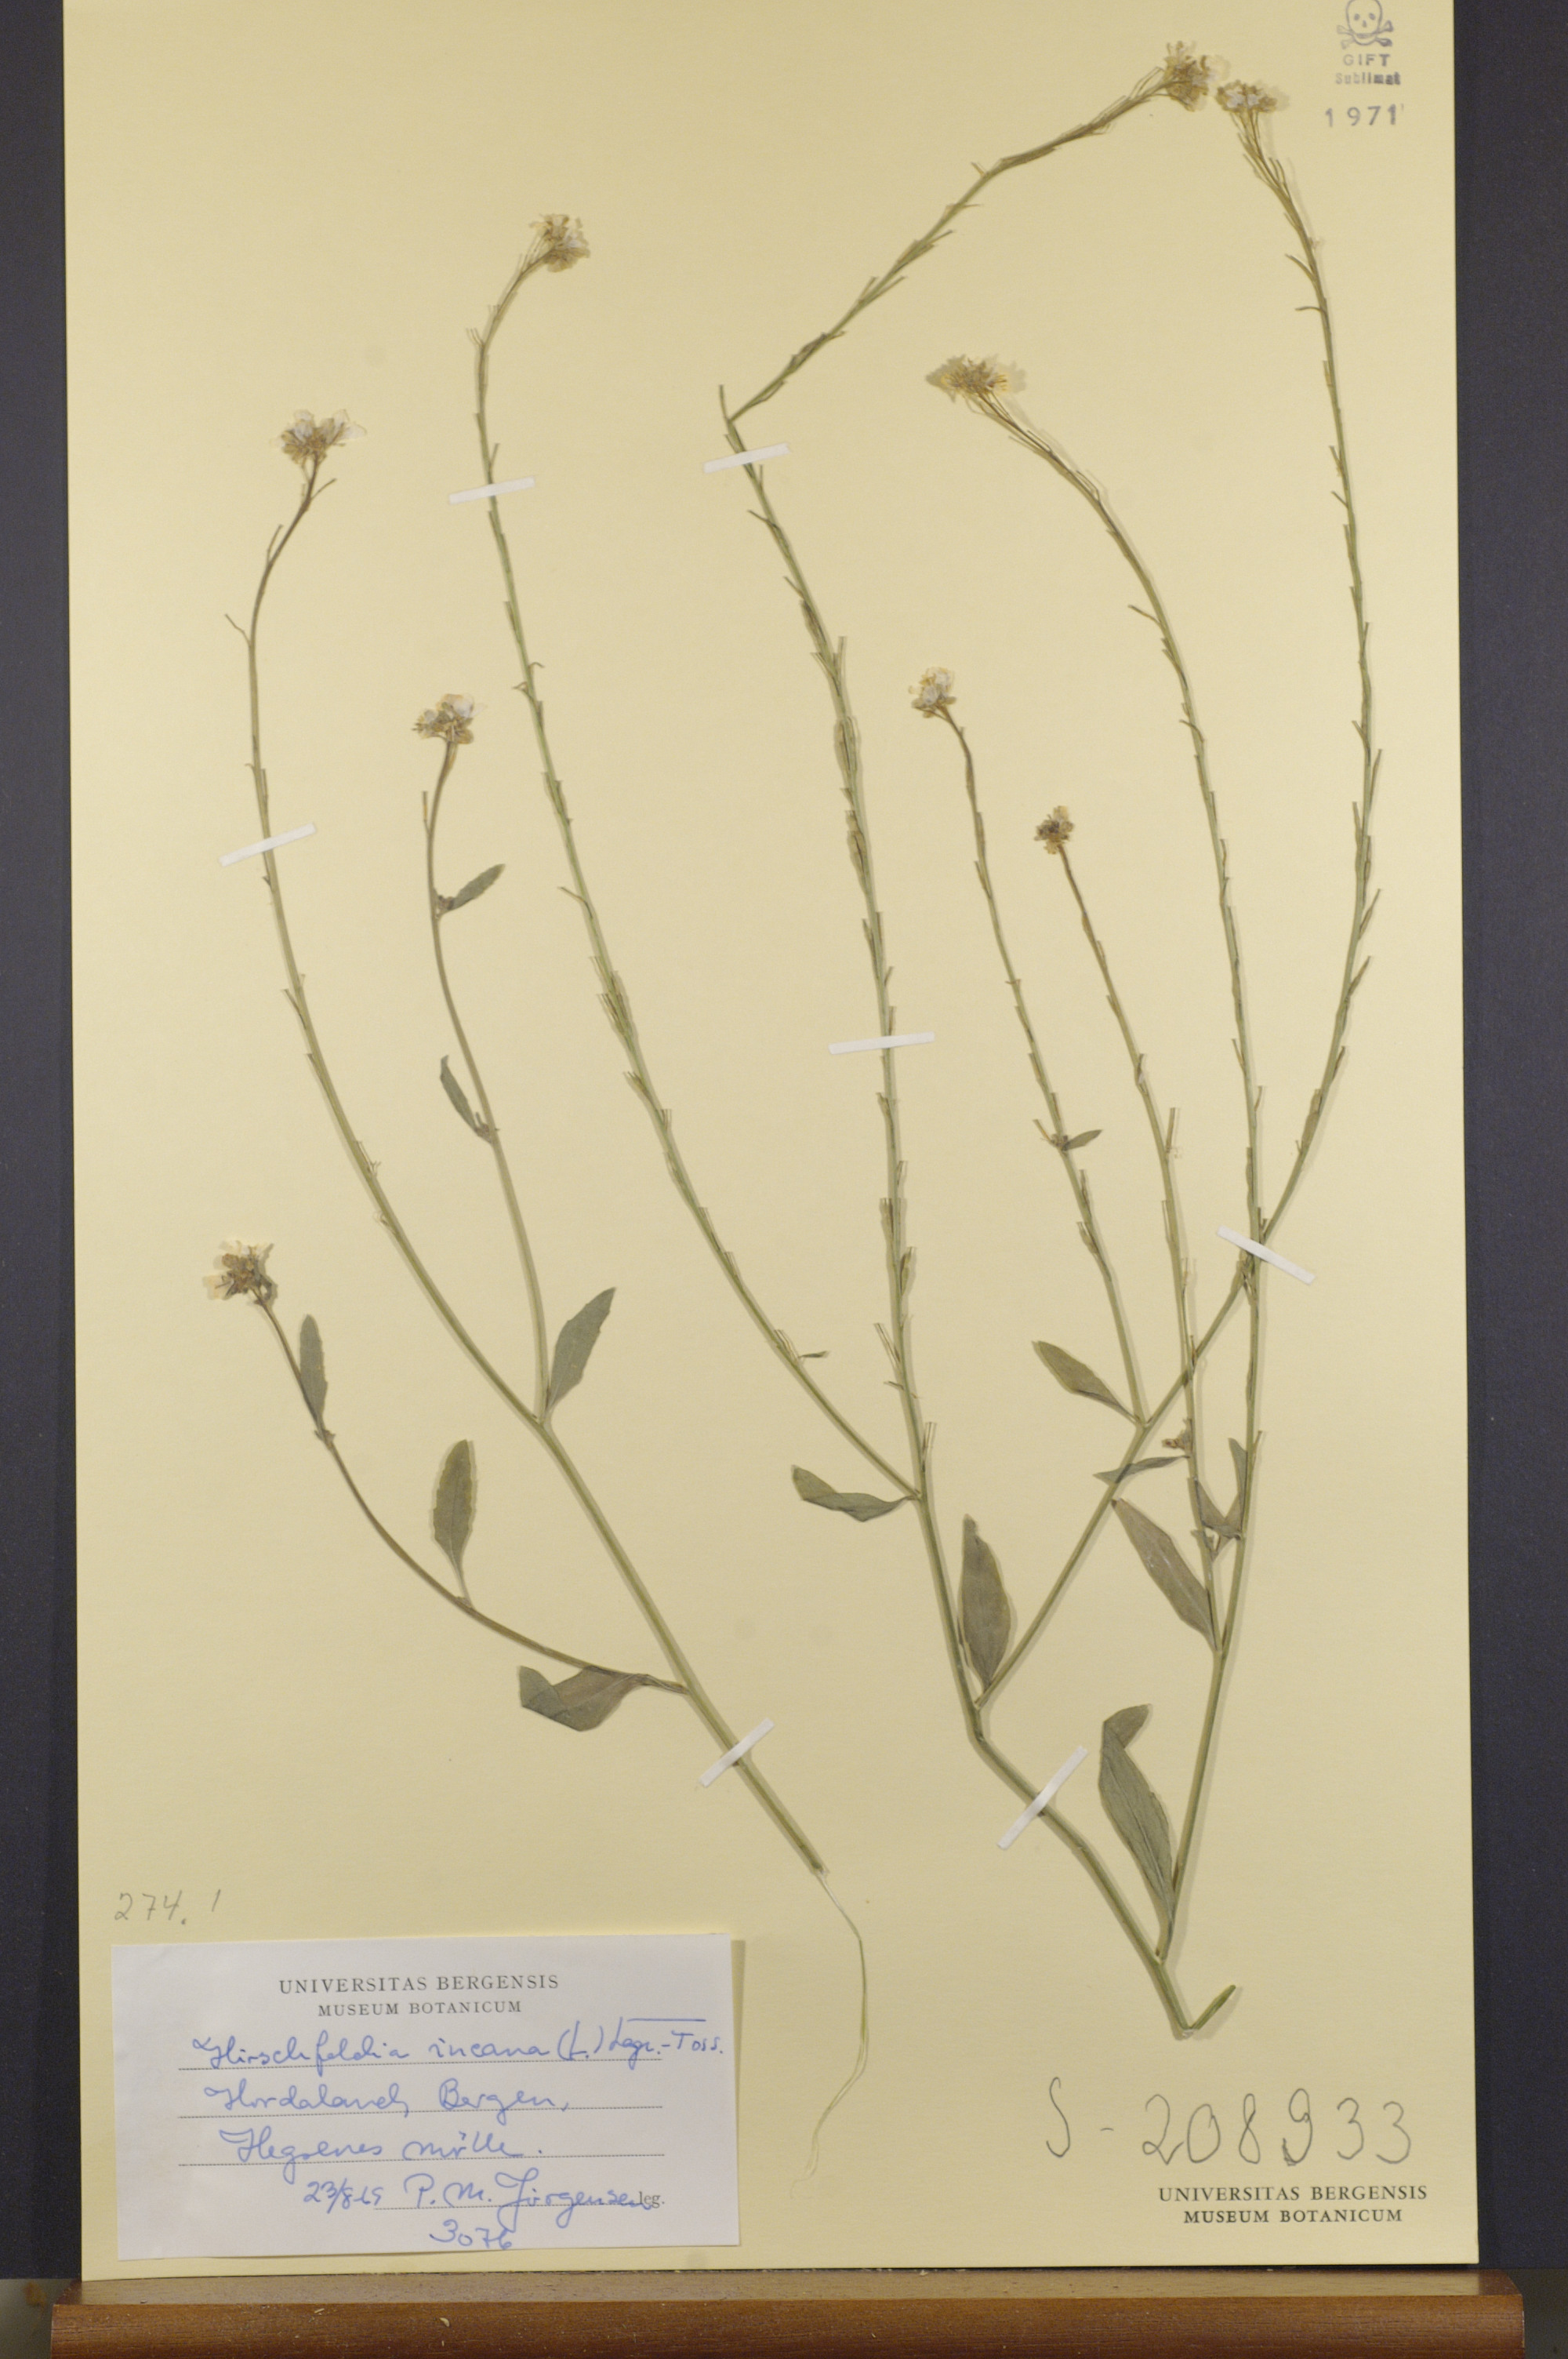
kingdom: Plantae
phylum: Tracheophyta
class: Magnoliopsida
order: Brassicales
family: Brassicaceae
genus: Hirschfeldia
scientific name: Hirschfeldia incana
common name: Hoary mustard
